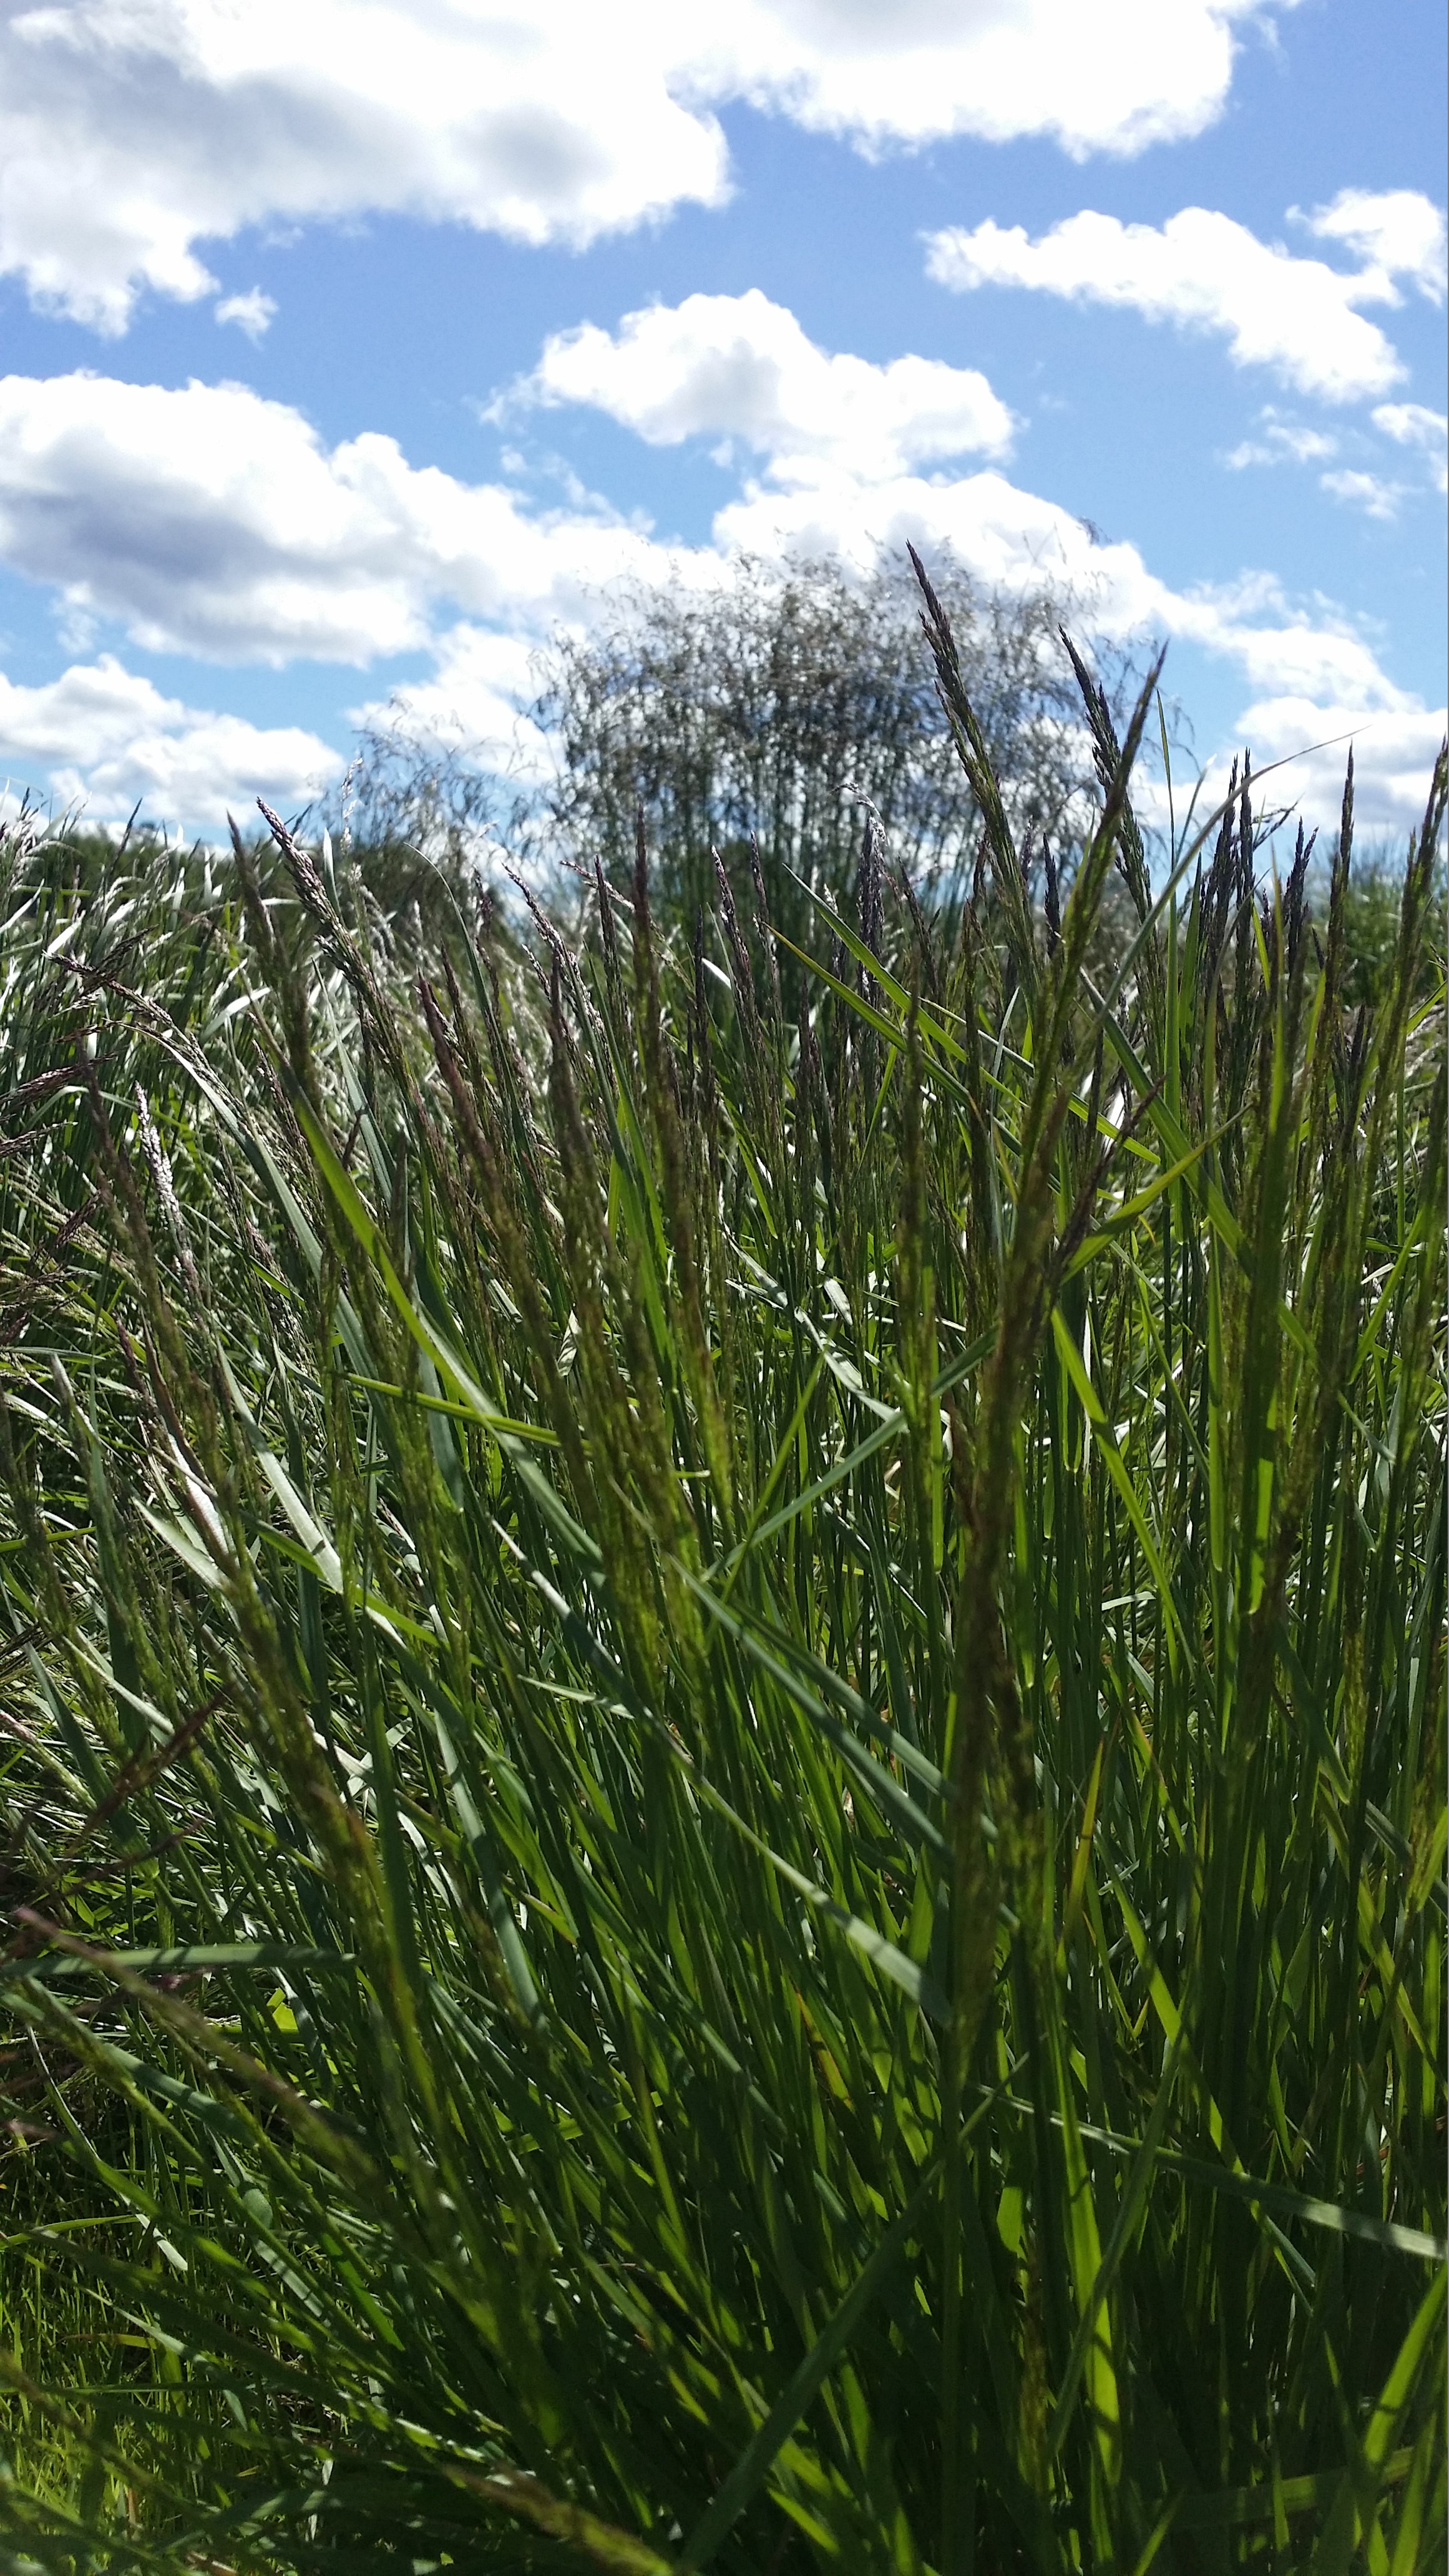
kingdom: Plantae
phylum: Tracheophyta
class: Liliopsida
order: Poales
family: Poaceae
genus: Agrostis
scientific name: Agrostis capillaris
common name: Colonial bentgrass
